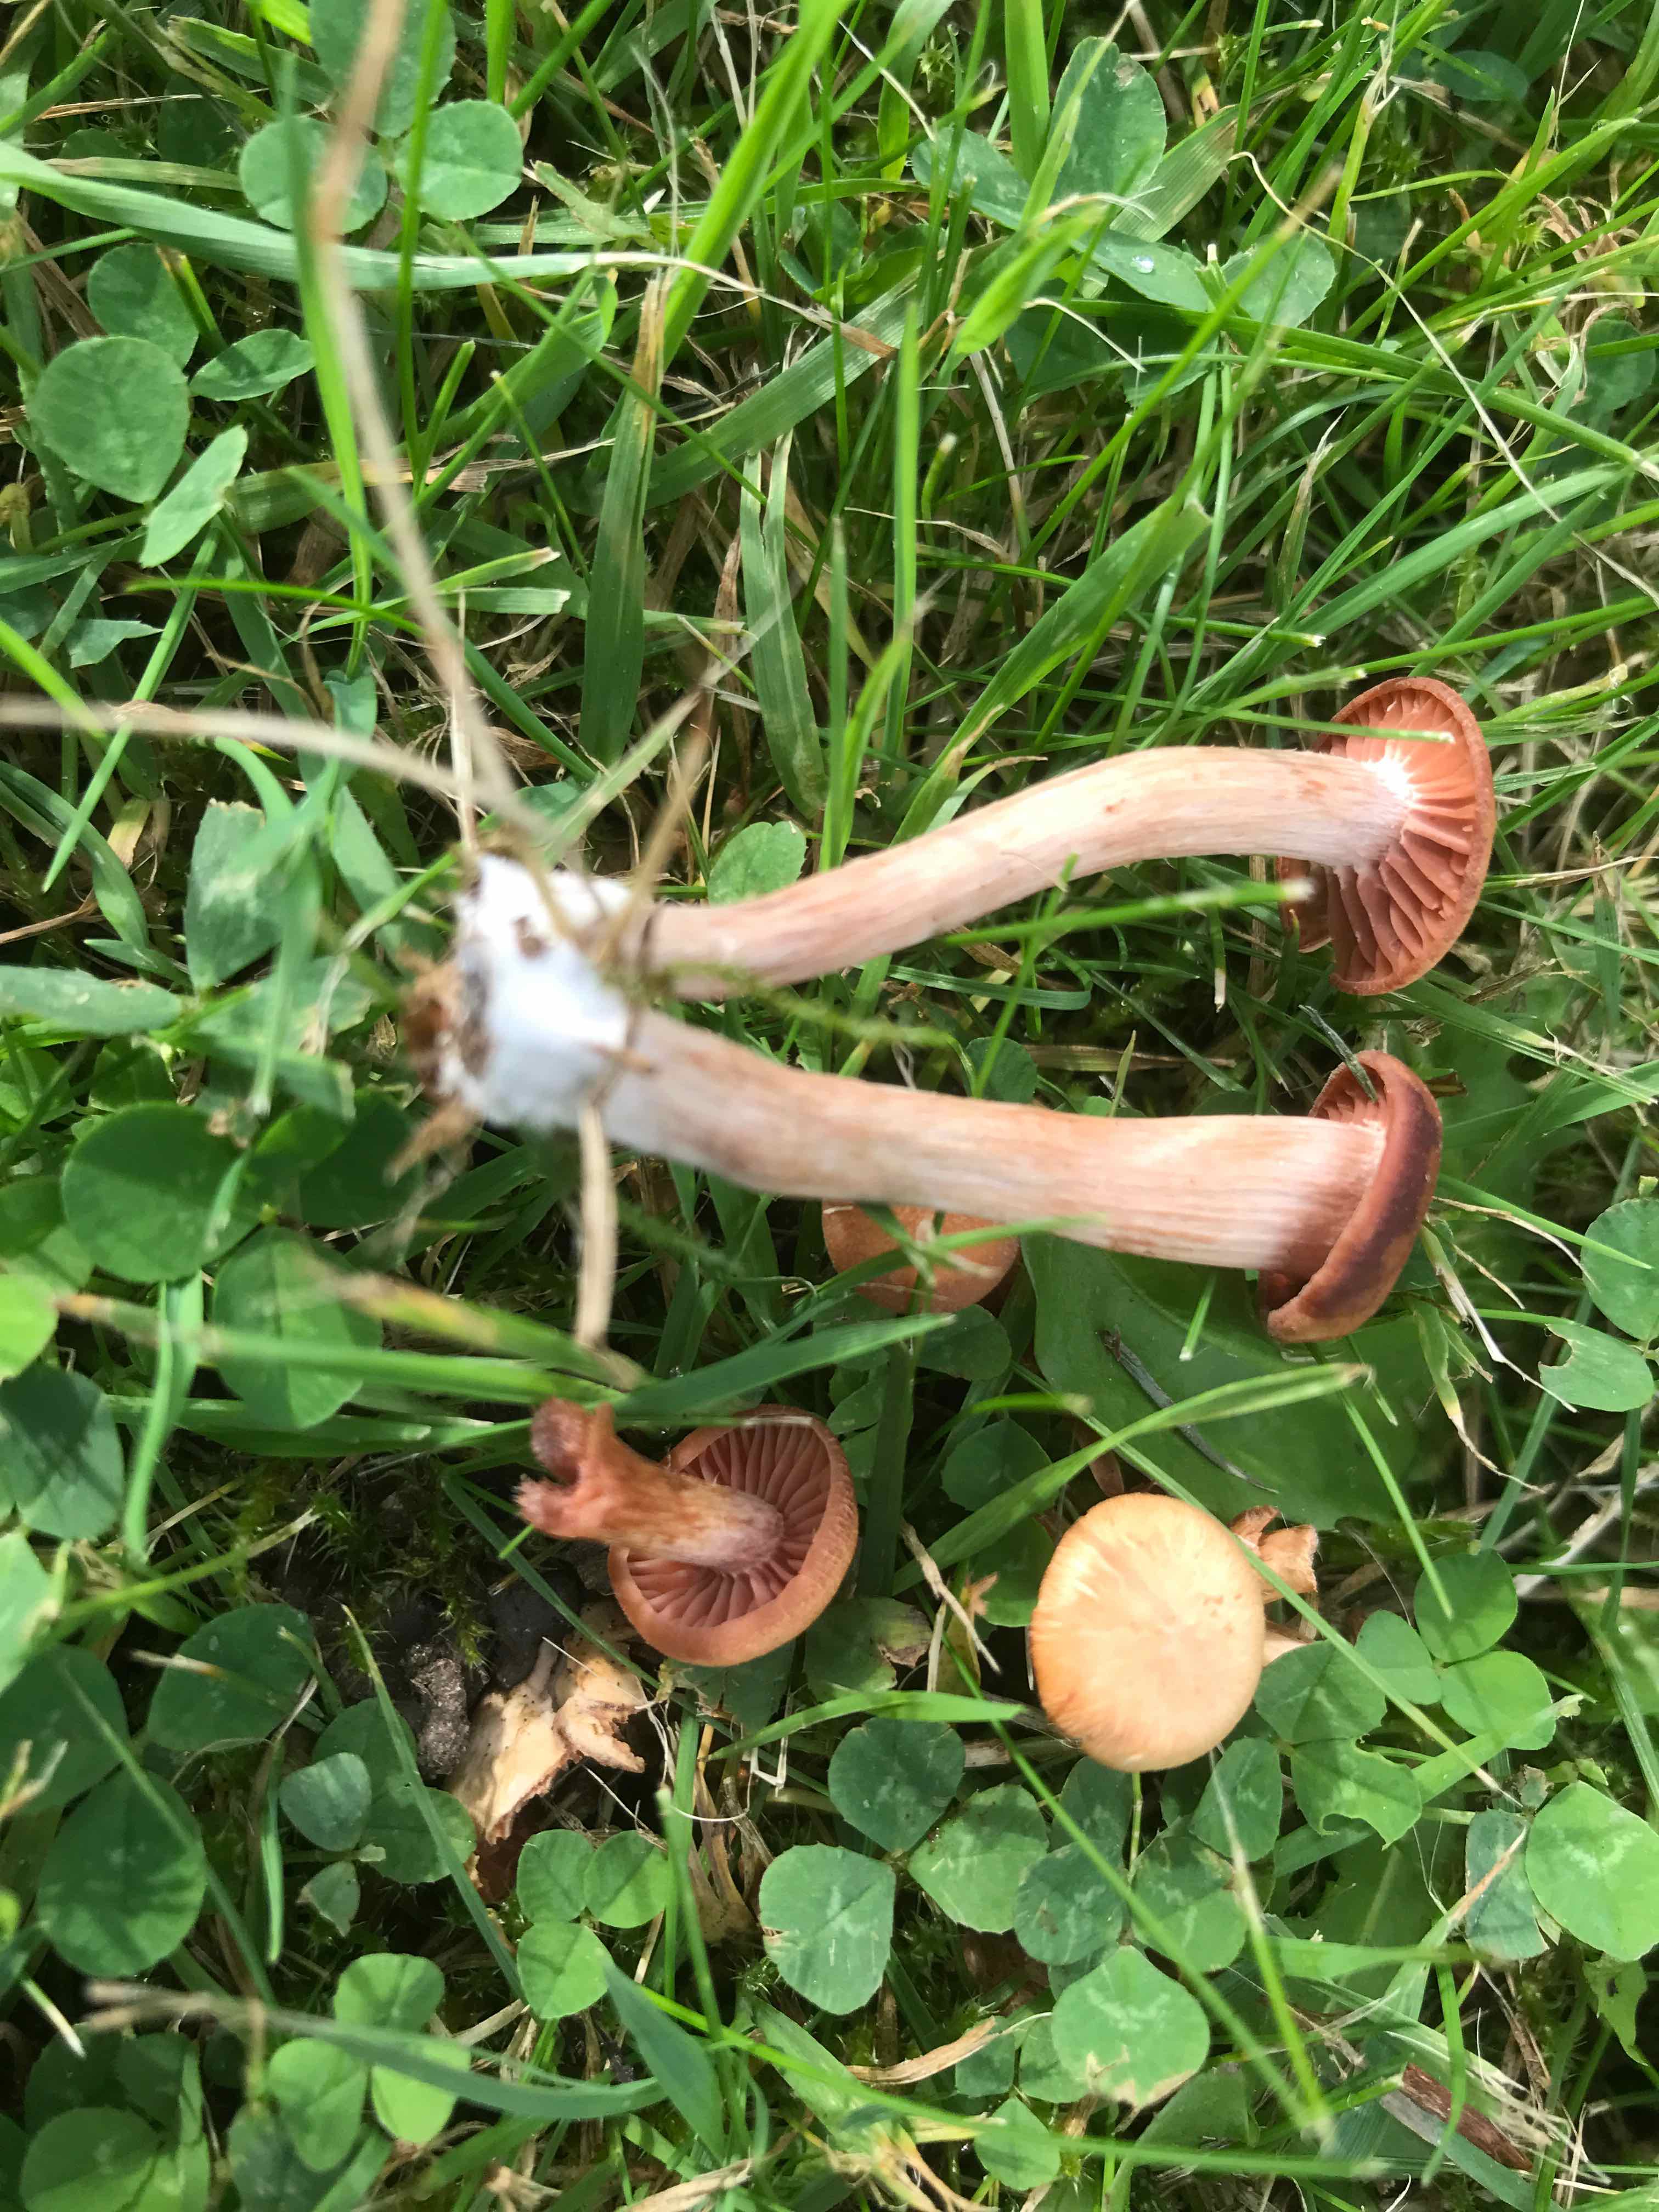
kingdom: Fungi
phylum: Basidiomycota
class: Agaricomycetes
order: Agaricales
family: Hydnangiaceae
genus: Laccaria
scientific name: Laccaria laccata
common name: rød ametysthat
